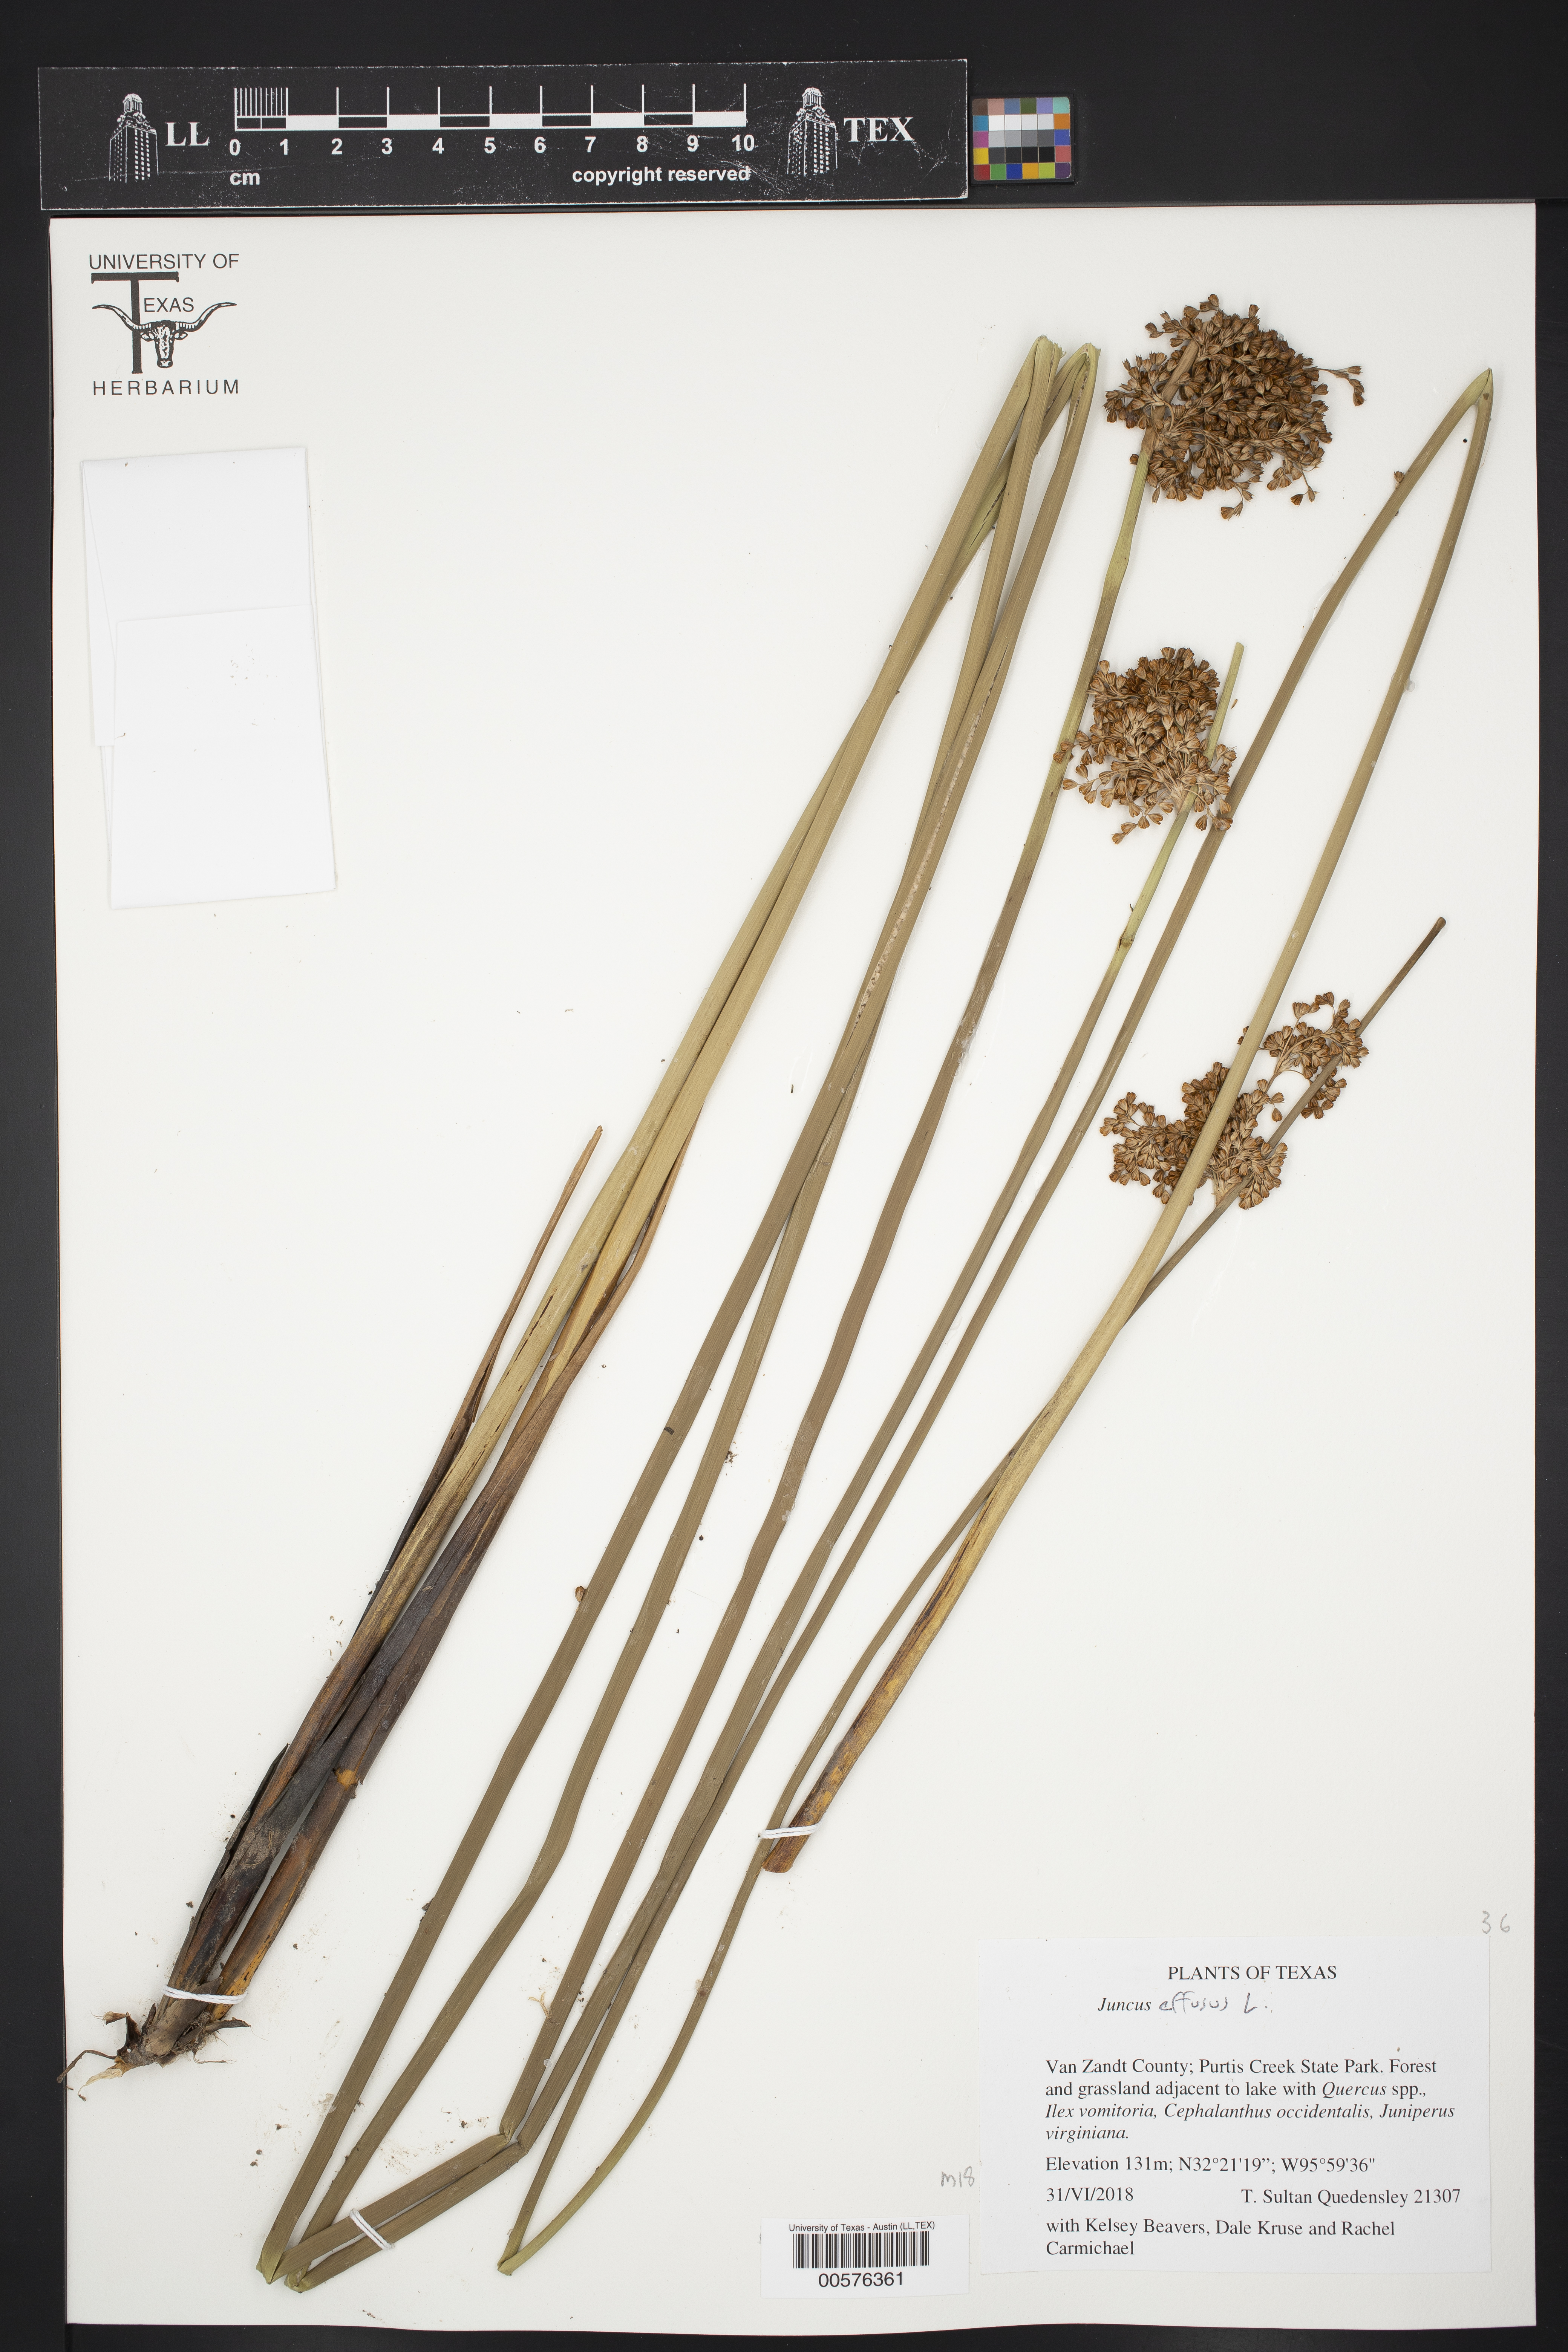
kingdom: Plantae
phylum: Tracheophyta
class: Liliopsida
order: Poales
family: Juncaceae
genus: Juncus
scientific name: Juncus effusus
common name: Soft rush
